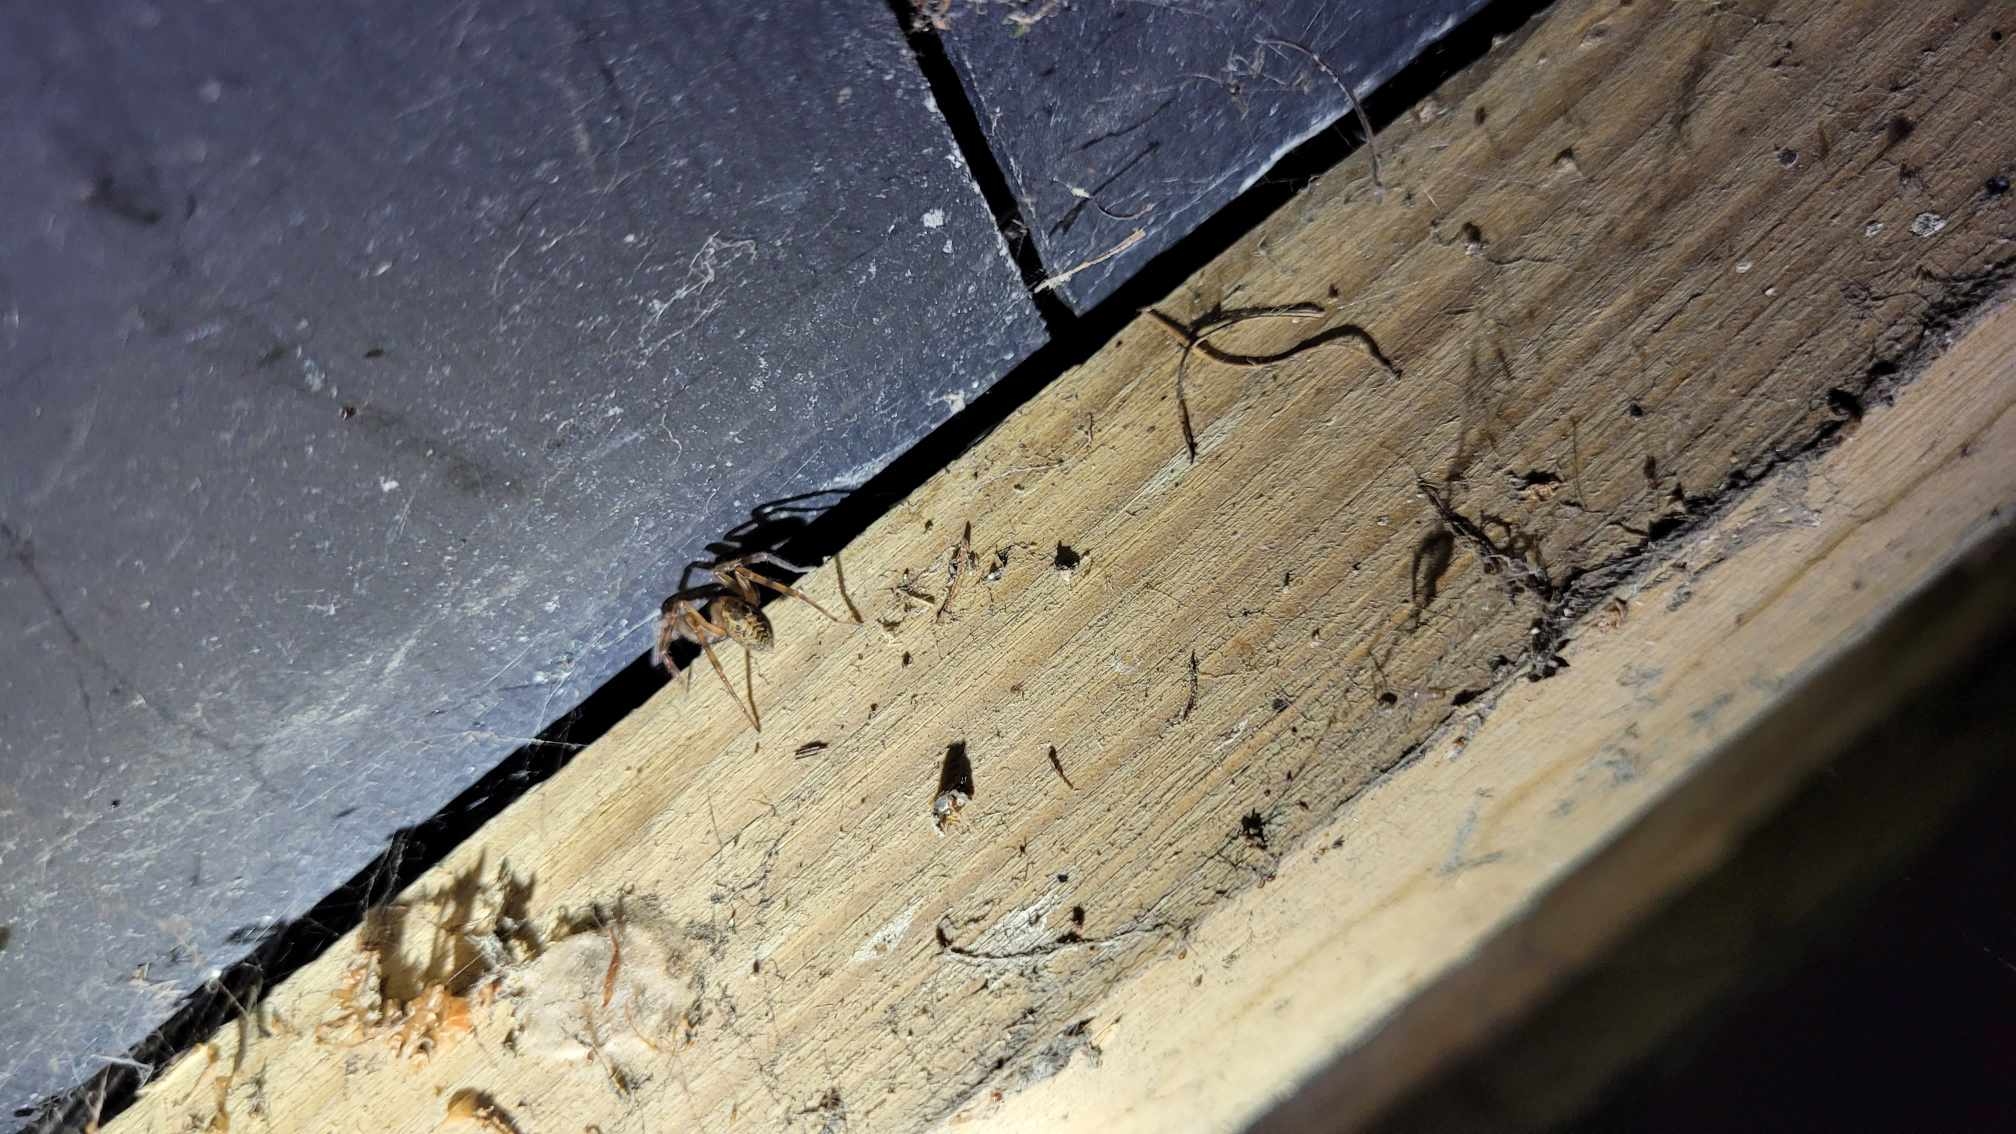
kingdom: Animalia
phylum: Arthropoda
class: Arachnida
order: Araneae
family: Amaurobiidae
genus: Amaurobius
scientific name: Amaurobius similis
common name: Huskartespinder
